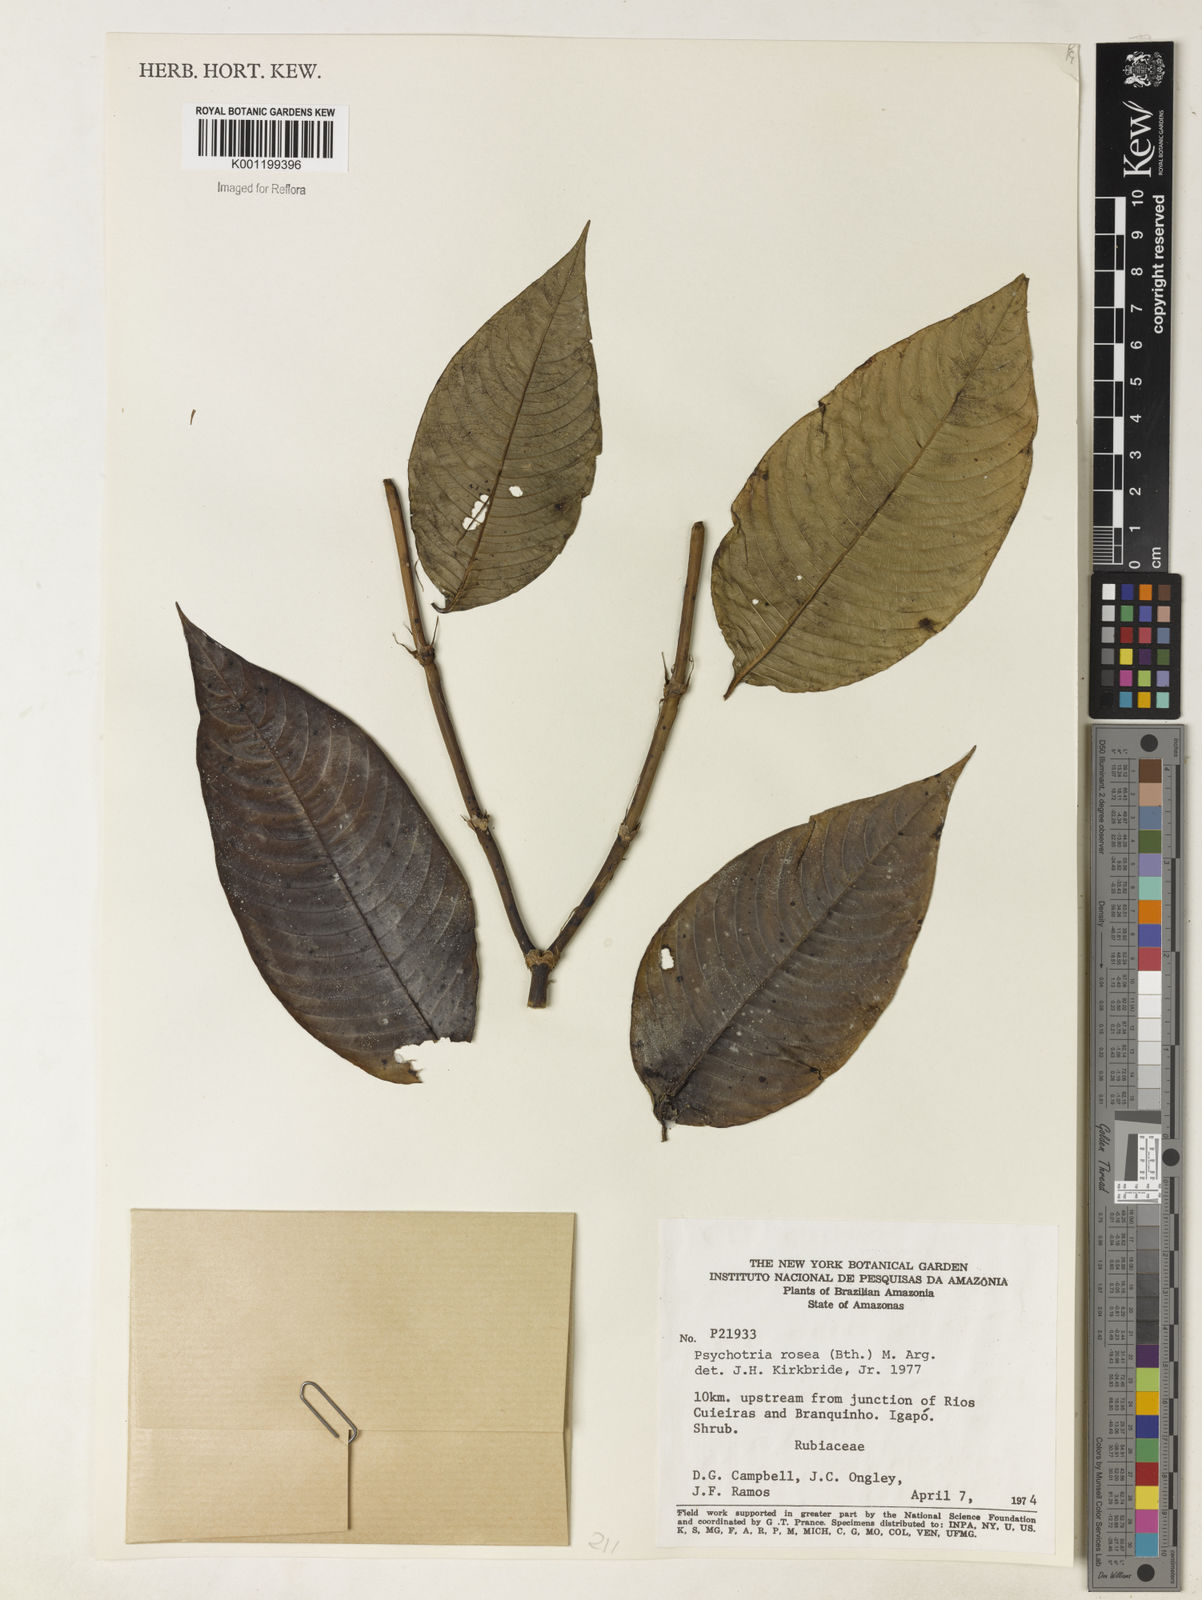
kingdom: Plantae
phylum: Tracheophyta
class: Magnoliopsida
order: Gentianales
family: Rubiaceae
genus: Psychotria
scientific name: Psychotria
